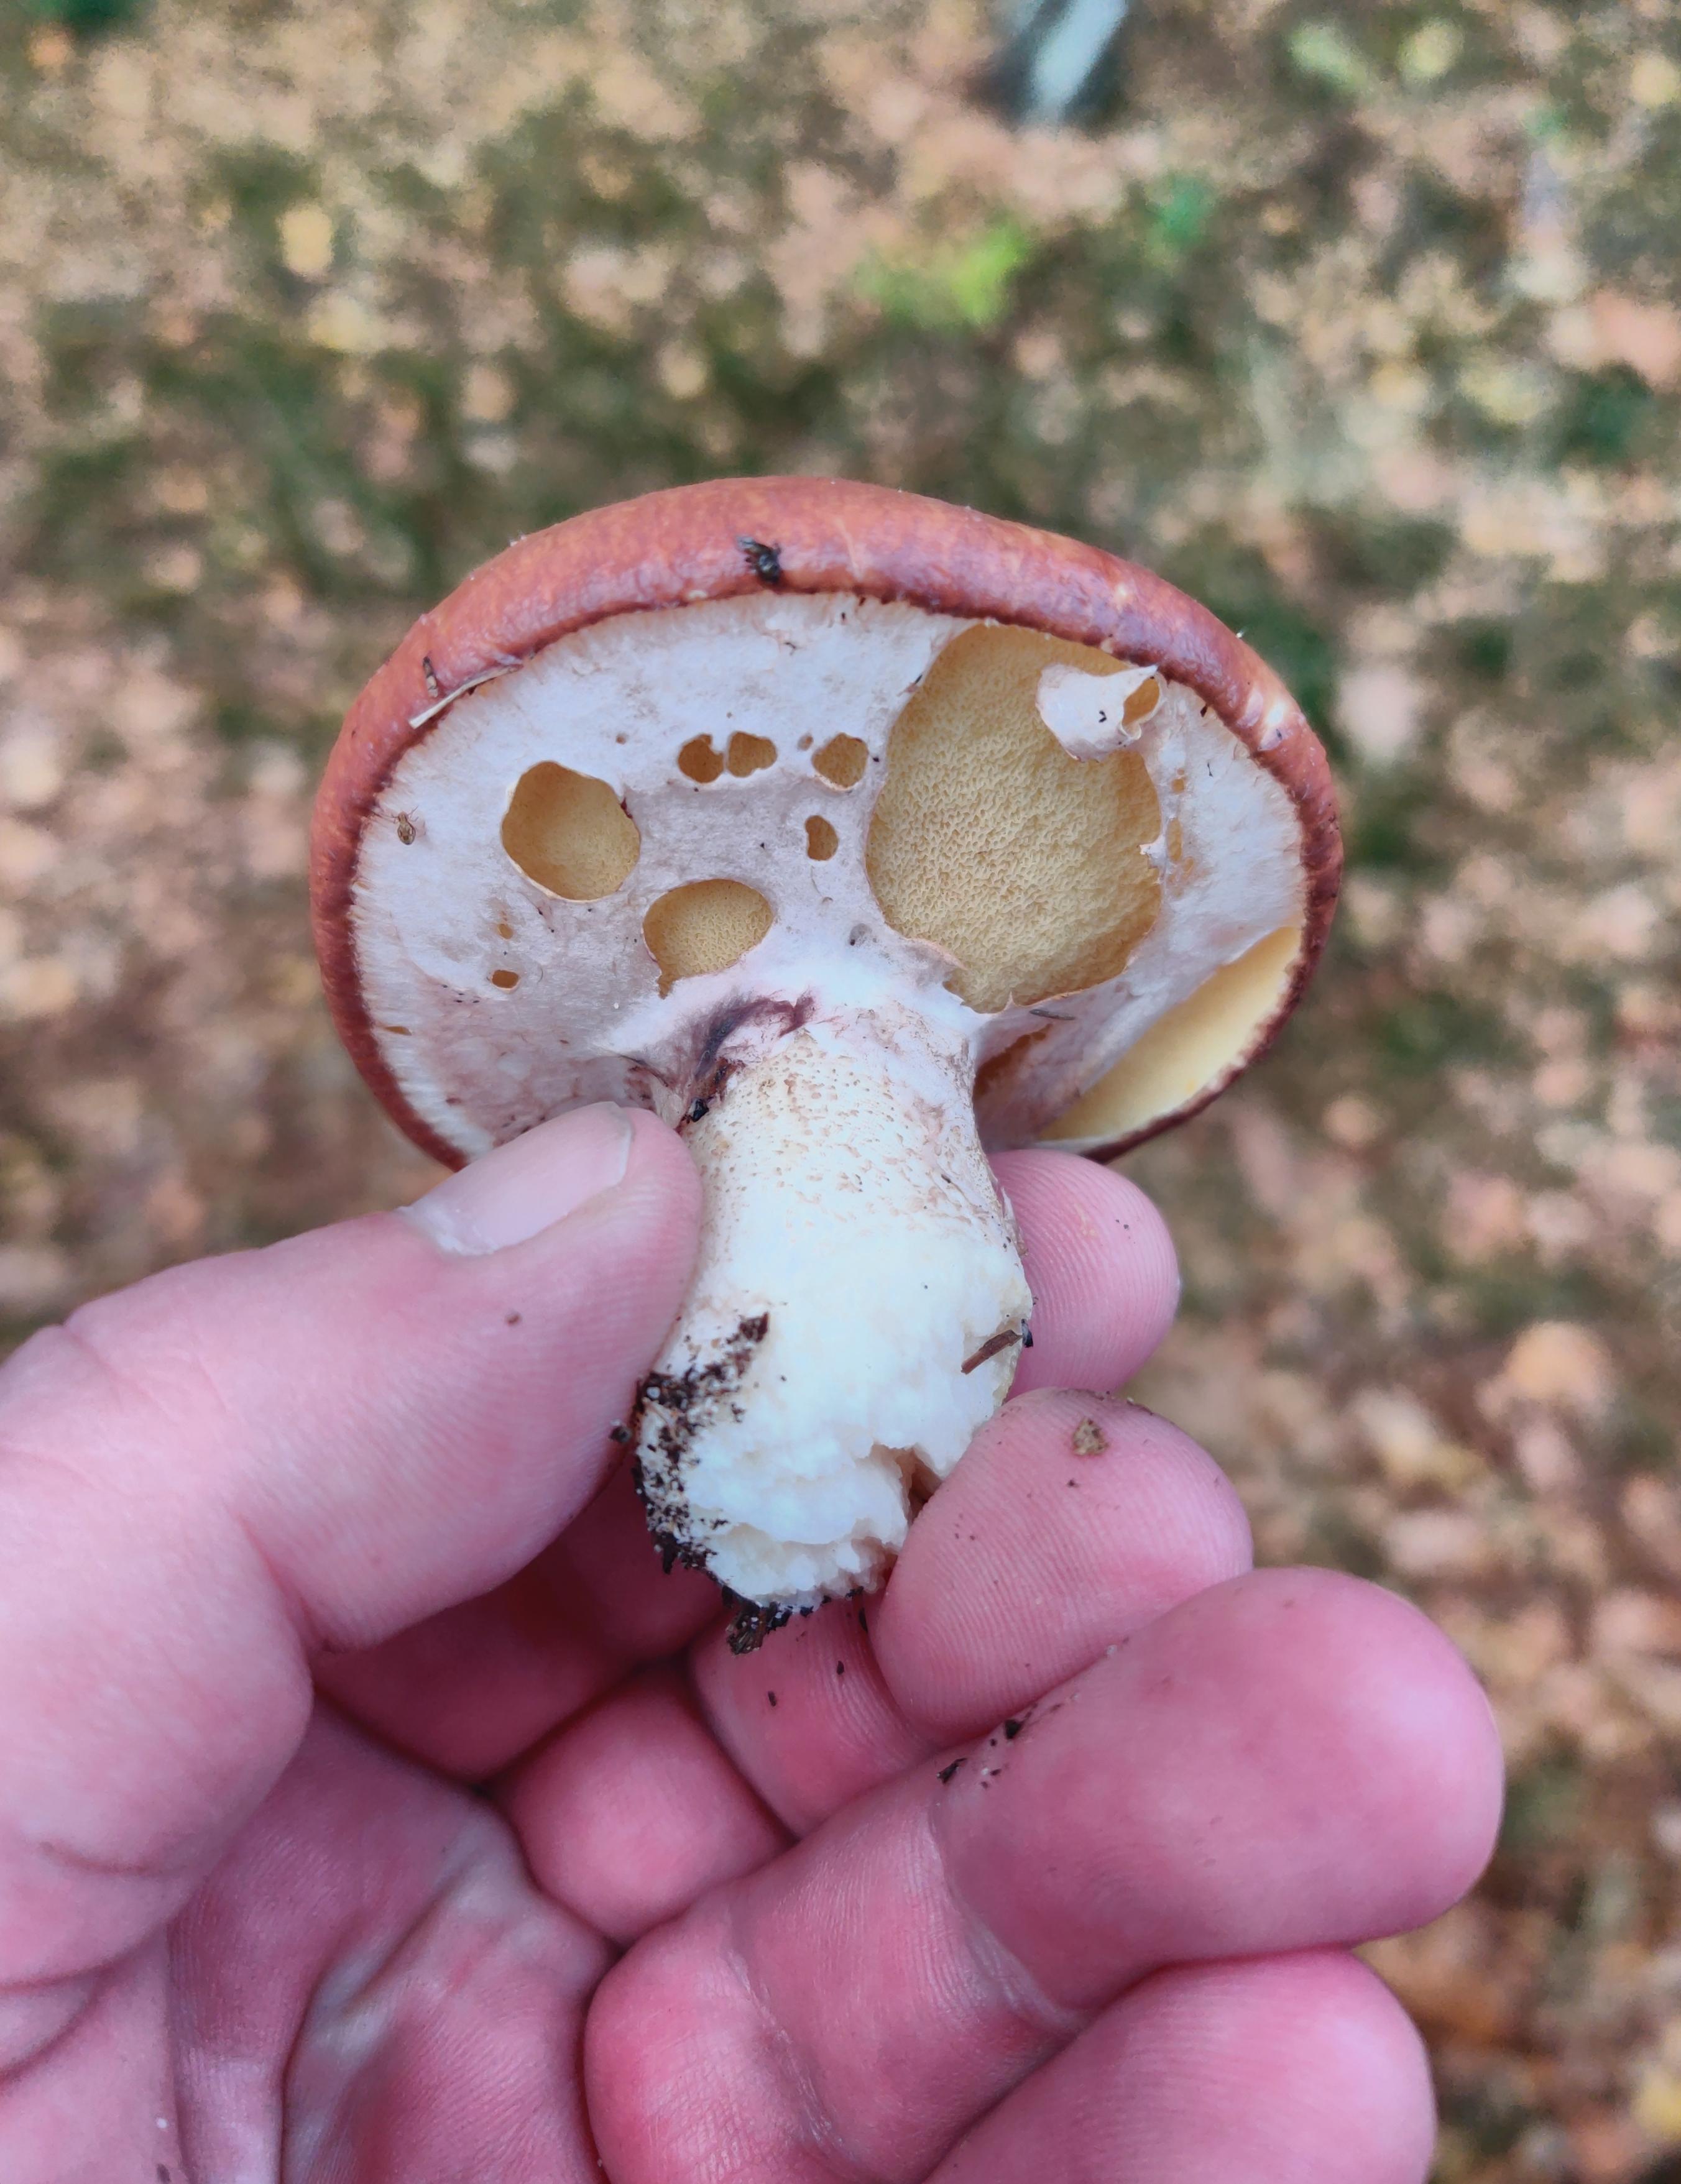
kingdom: Fungi
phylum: Basidiomycota
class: Agaricomycetes
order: Boletales
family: Suillaceae
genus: Suillus
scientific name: Suillus luteus
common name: brungul slimrørhat
